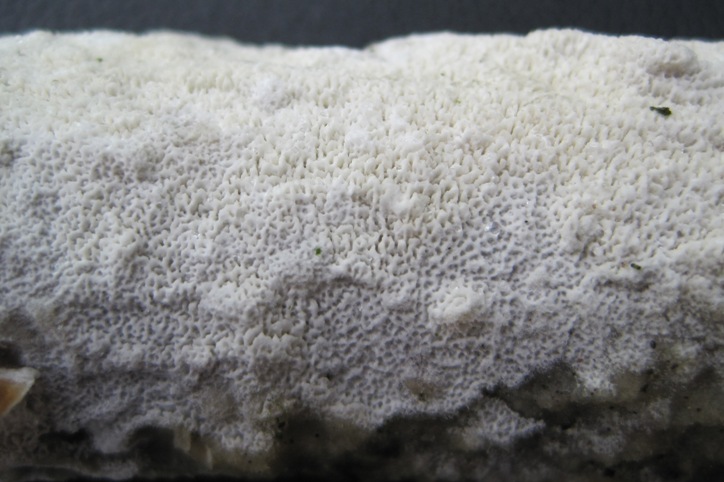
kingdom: Fungi
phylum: Basidiomycota
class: Agaricomycetes
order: Hymenochaetales
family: Schizoporaceae
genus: Schizopora
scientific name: Schizopora paradoxa
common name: hvid tandsvamp
